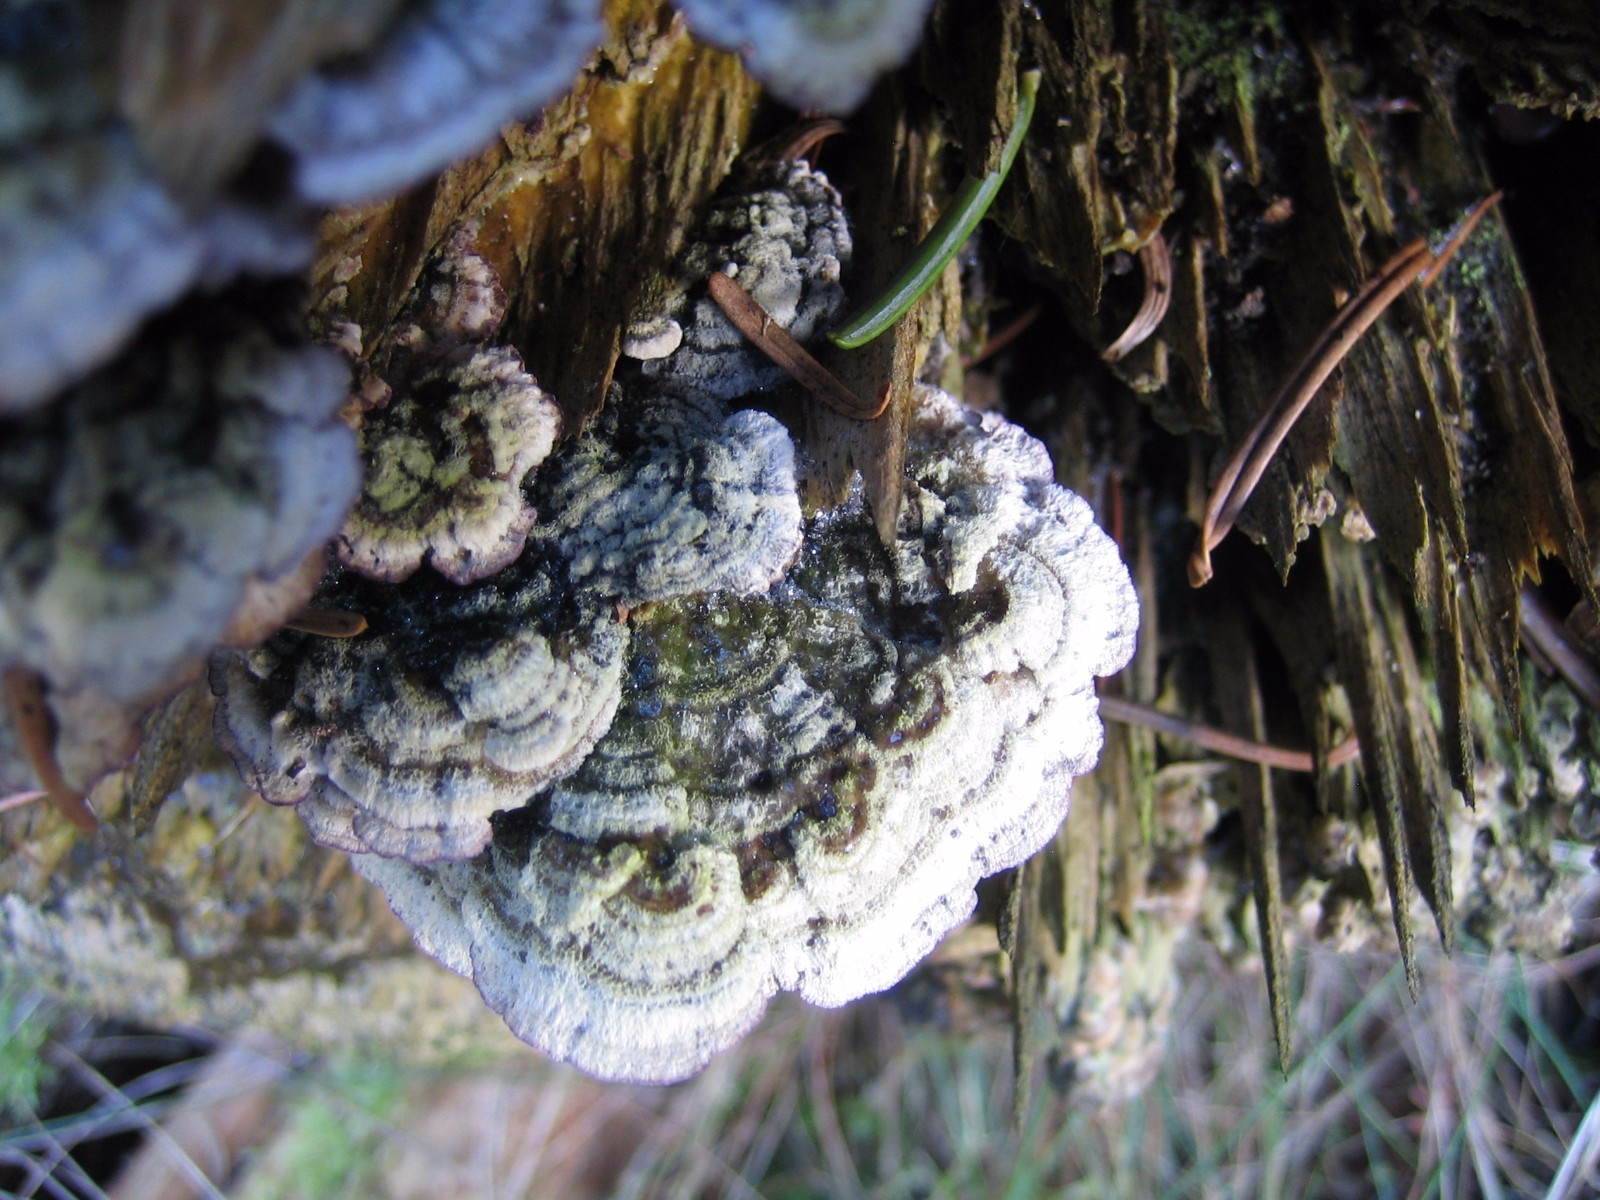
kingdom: Fungi
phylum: Basidiomycota
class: Agaricomycetes
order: Hymenochaetales
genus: Trichaptum
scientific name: Trichaptum abietinum
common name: almindelig violporesvamp
